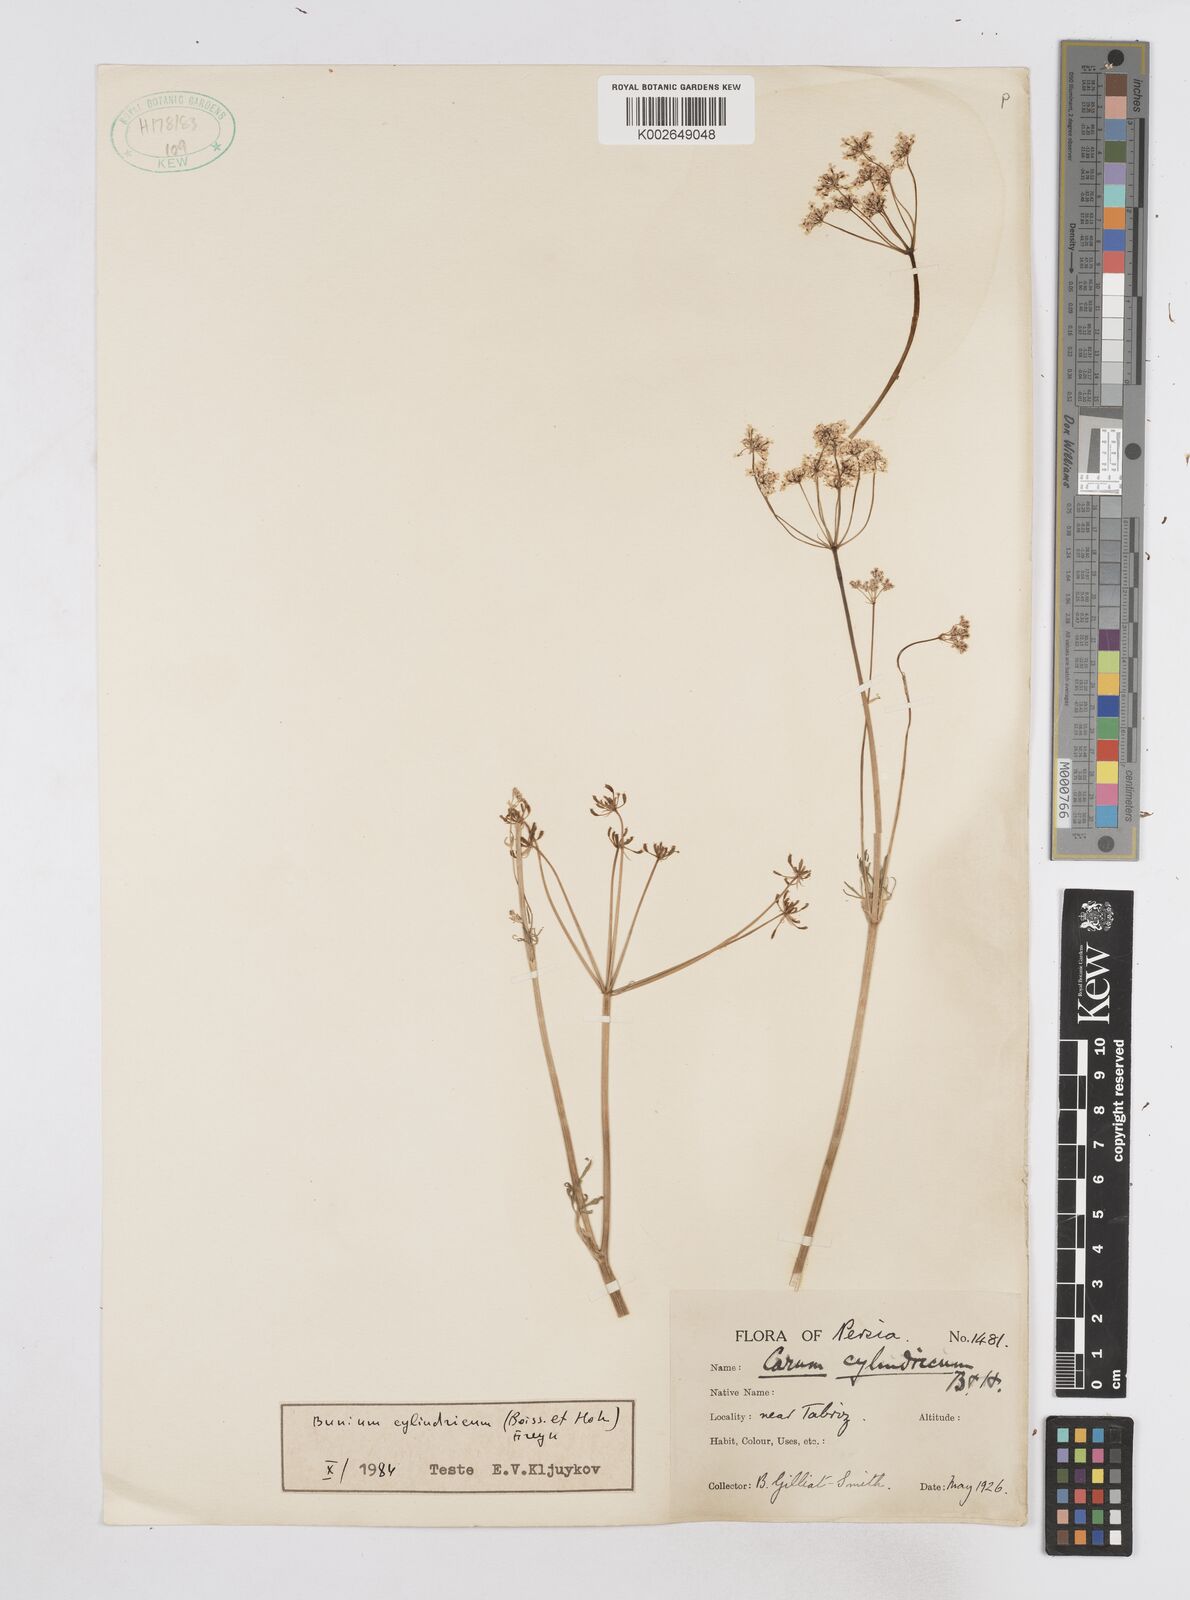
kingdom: Plantae
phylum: Tracheophyta
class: Magnoliopsida
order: Apiales
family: Apiaceae
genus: Elwendia
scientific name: Elwendia cylindrica
